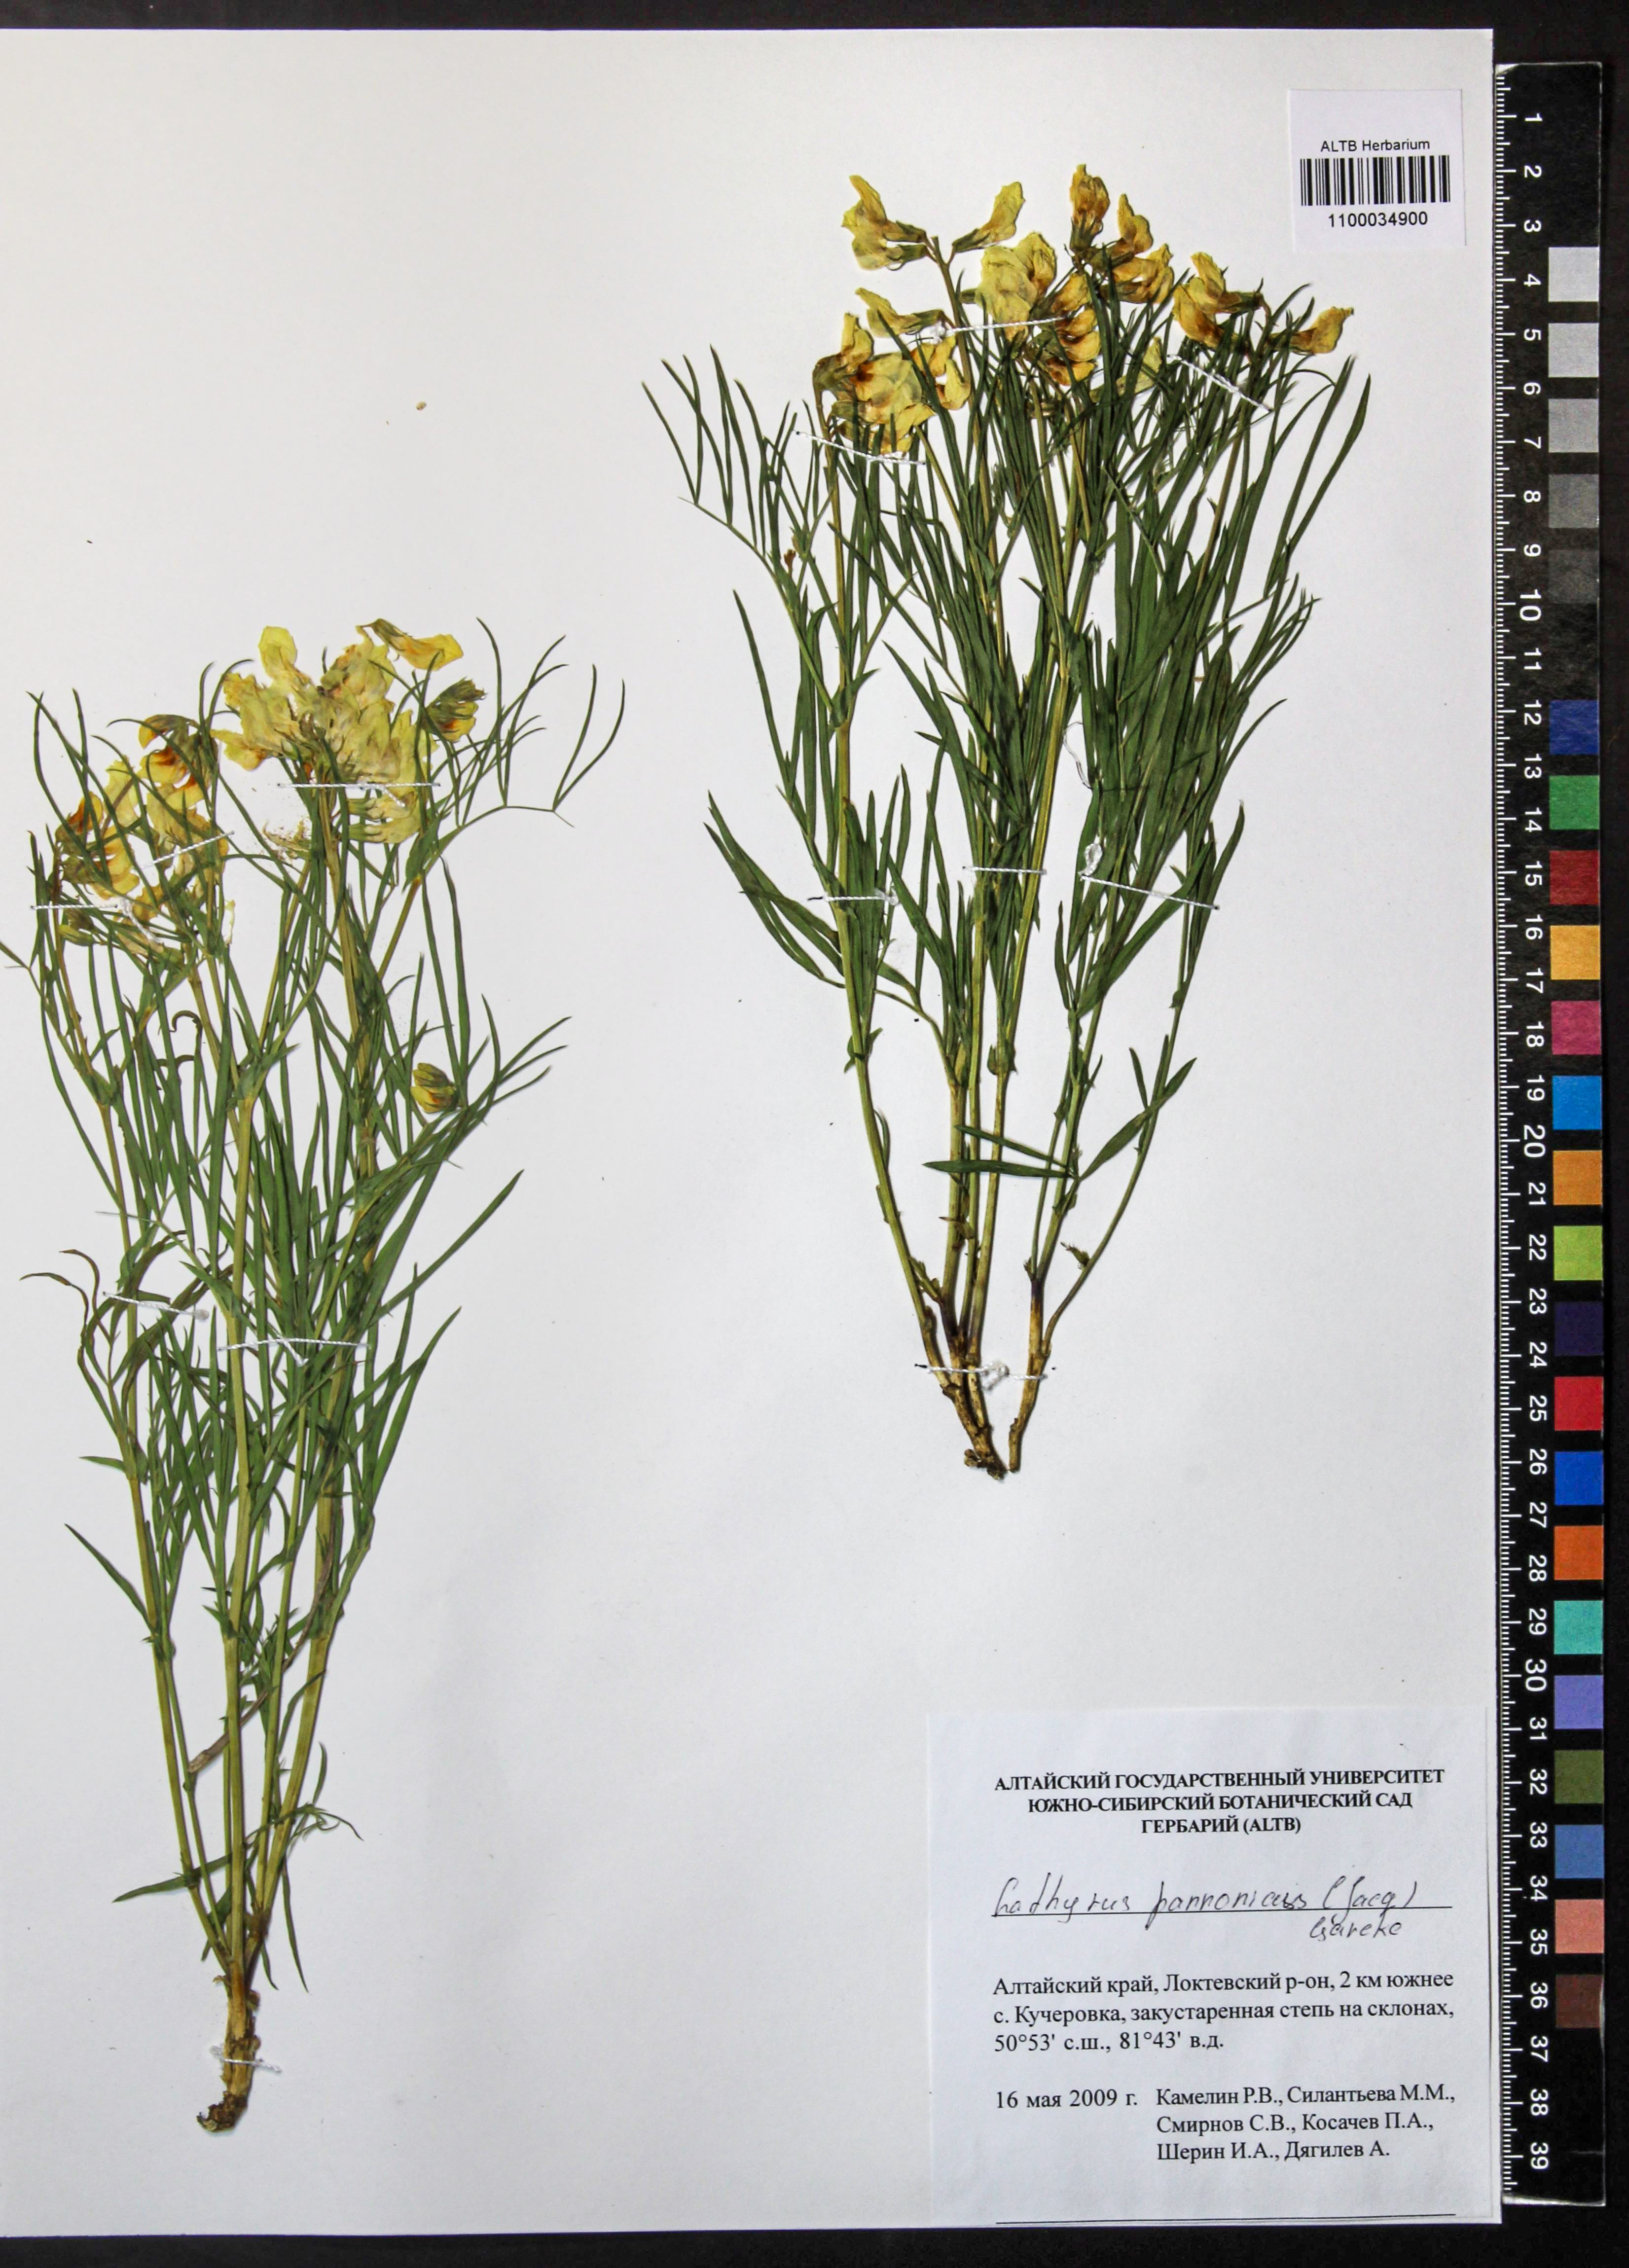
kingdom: Plantae
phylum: Tracheophyta
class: Magnoliopsida
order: Fabales
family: Fabaceae
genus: Lathyrus
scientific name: Lathyrus pannonicus
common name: Pea
